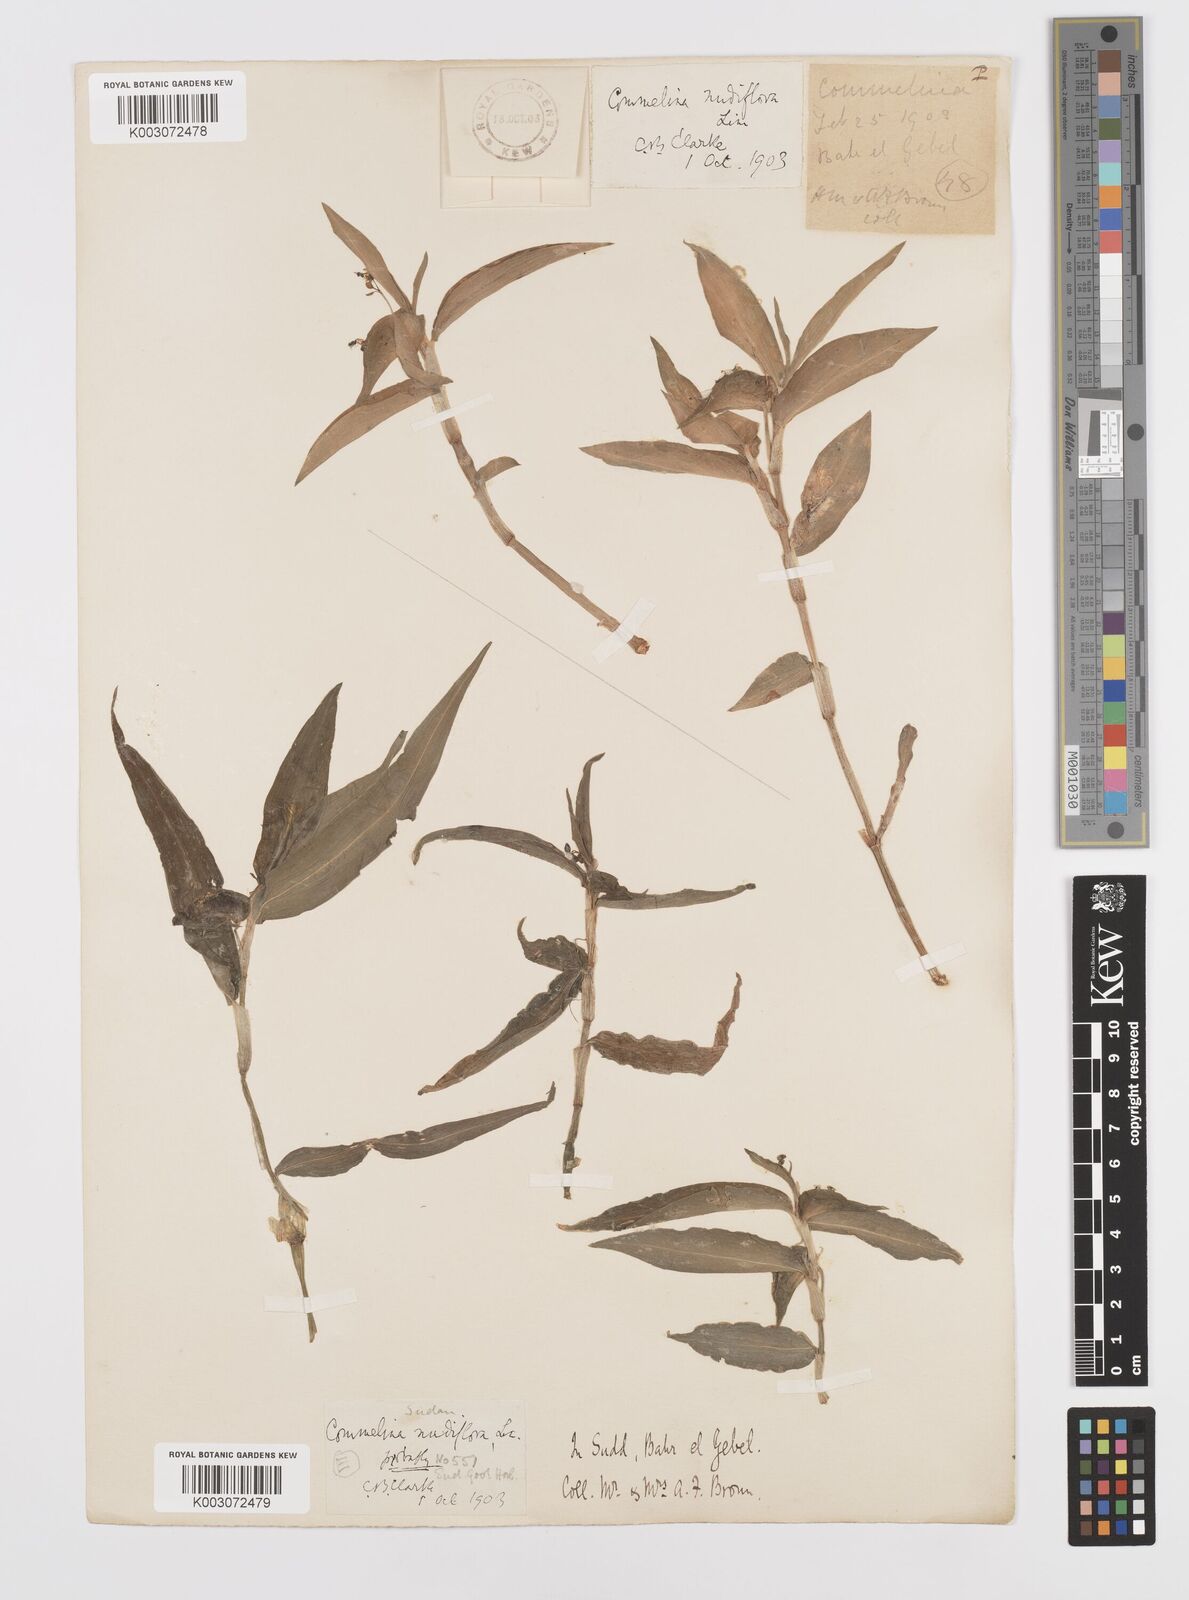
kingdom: Plantae
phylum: Tracheophyta
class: Liliopsida
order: Commelinales
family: Commelinaceae
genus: Commelina
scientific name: Commelina diffusa
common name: Climbing dayflower
